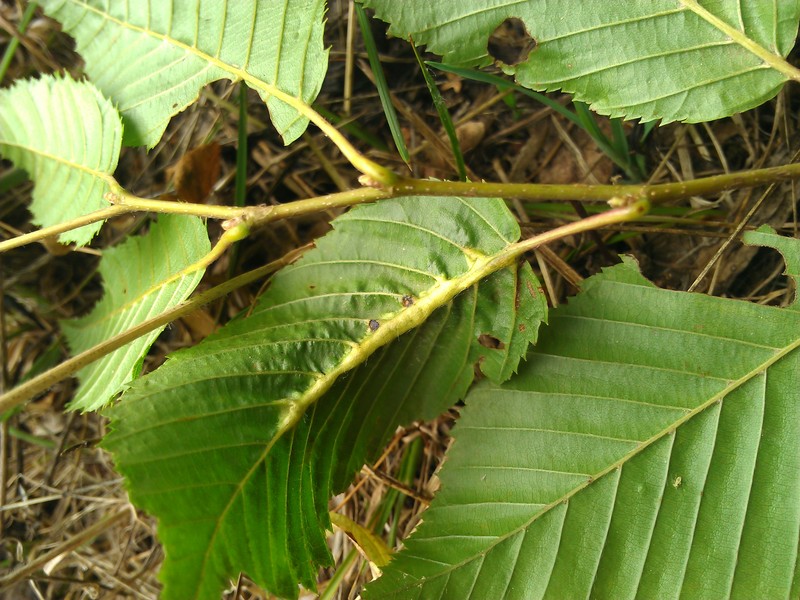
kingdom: Animalia
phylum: Arthropoda
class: Insecta
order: Diptera
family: Cecidomyiidae
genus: Zygiobia
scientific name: Zygiobia carpini
